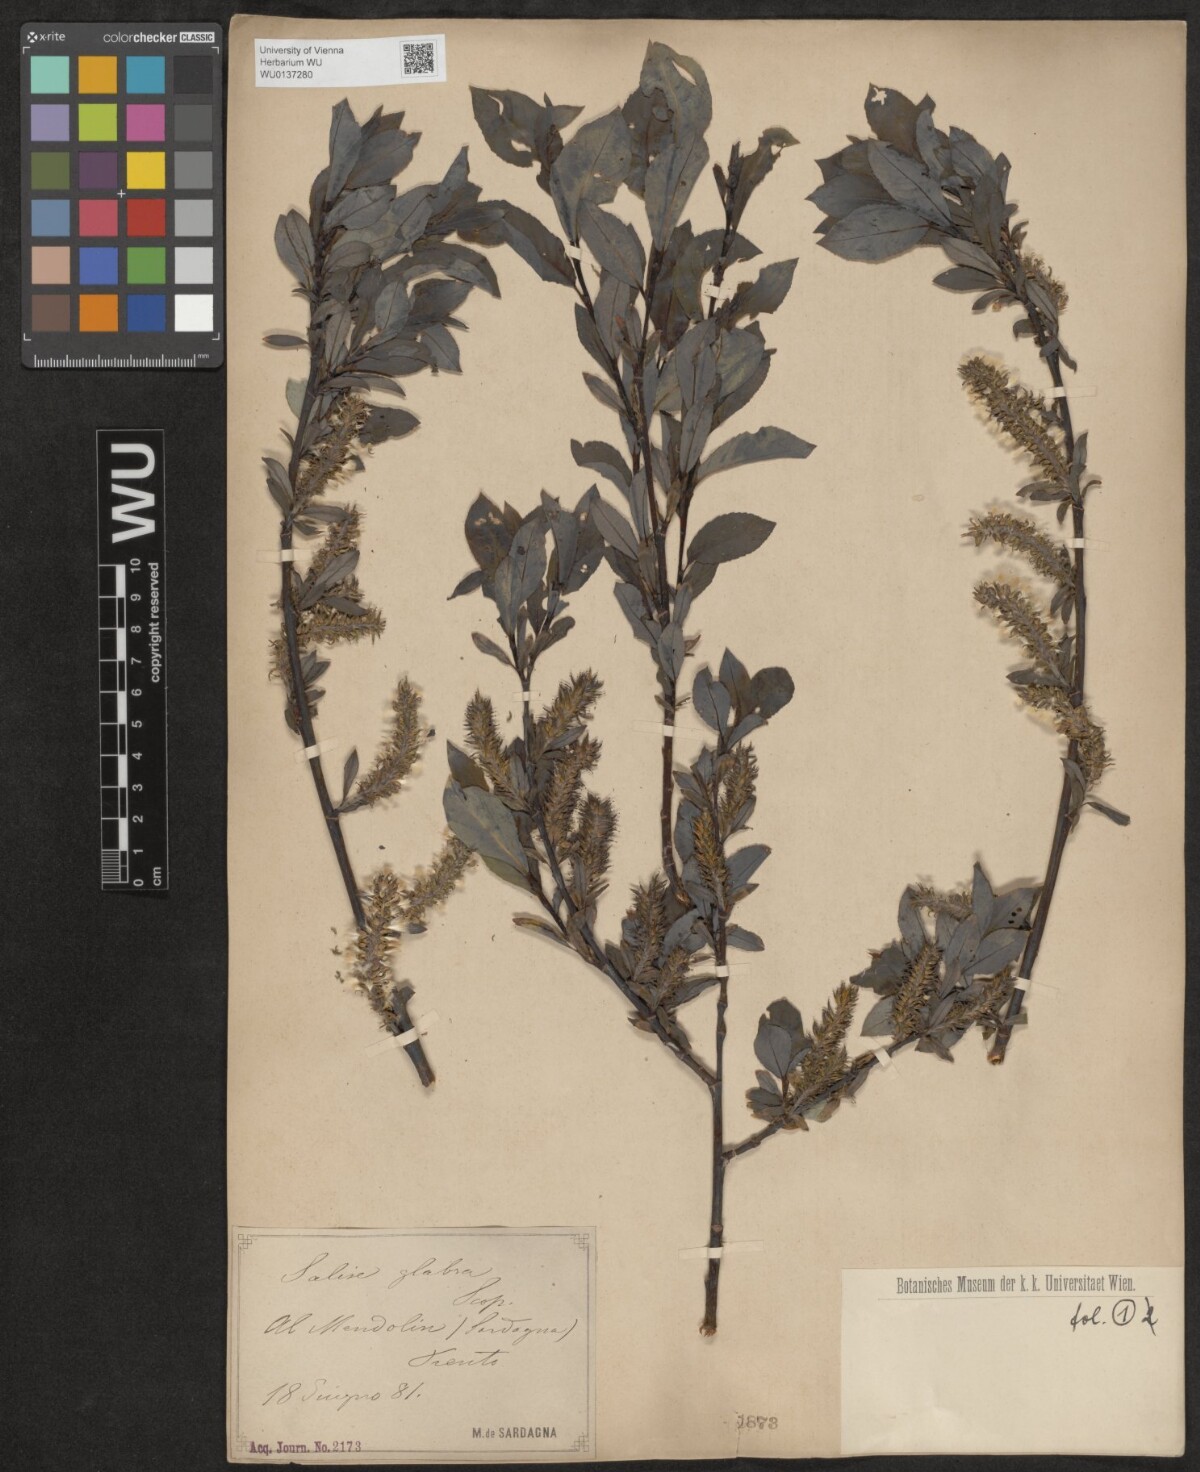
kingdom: Plantae
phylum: Tracheophyta
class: Magnoliopsida
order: Malpighiales
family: Salicaceae
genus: Salix
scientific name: Salix glabra
